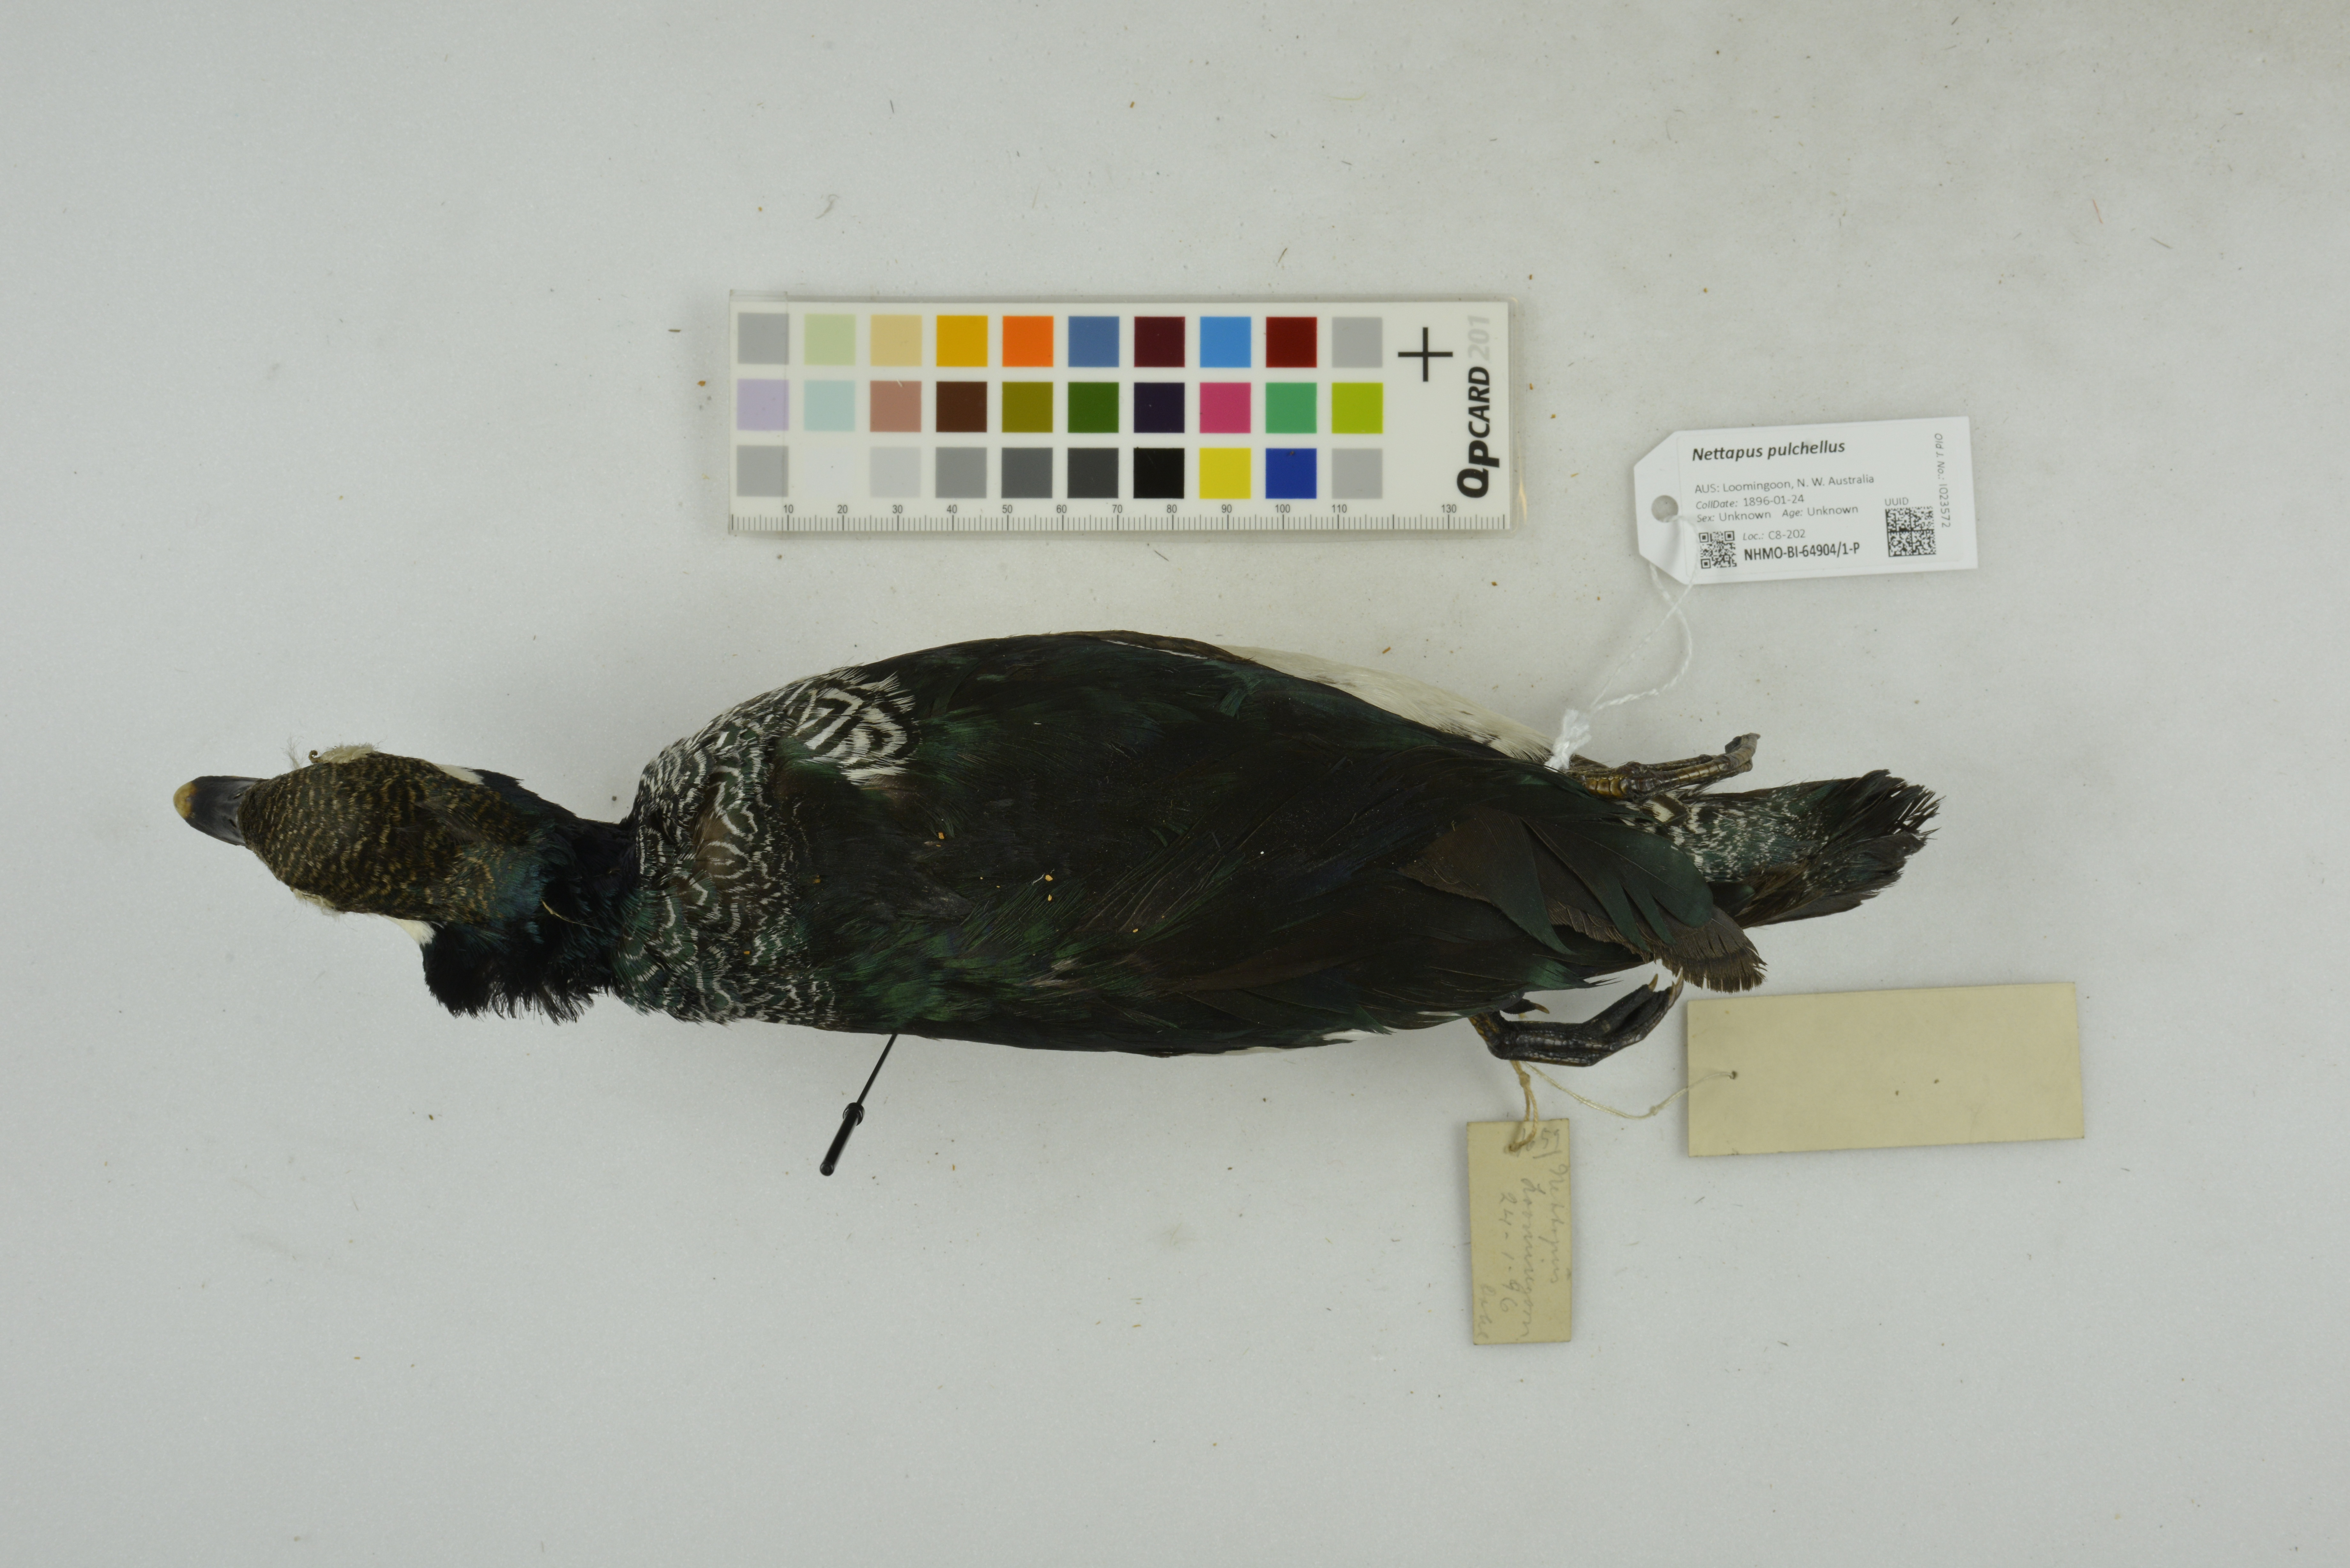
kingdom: Animalia
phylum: Chordata
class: Aves
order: Anseriformes
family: Anatidae
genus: Nettapus
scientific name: Nettapus pulchellus
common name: Green pygmy-goose
